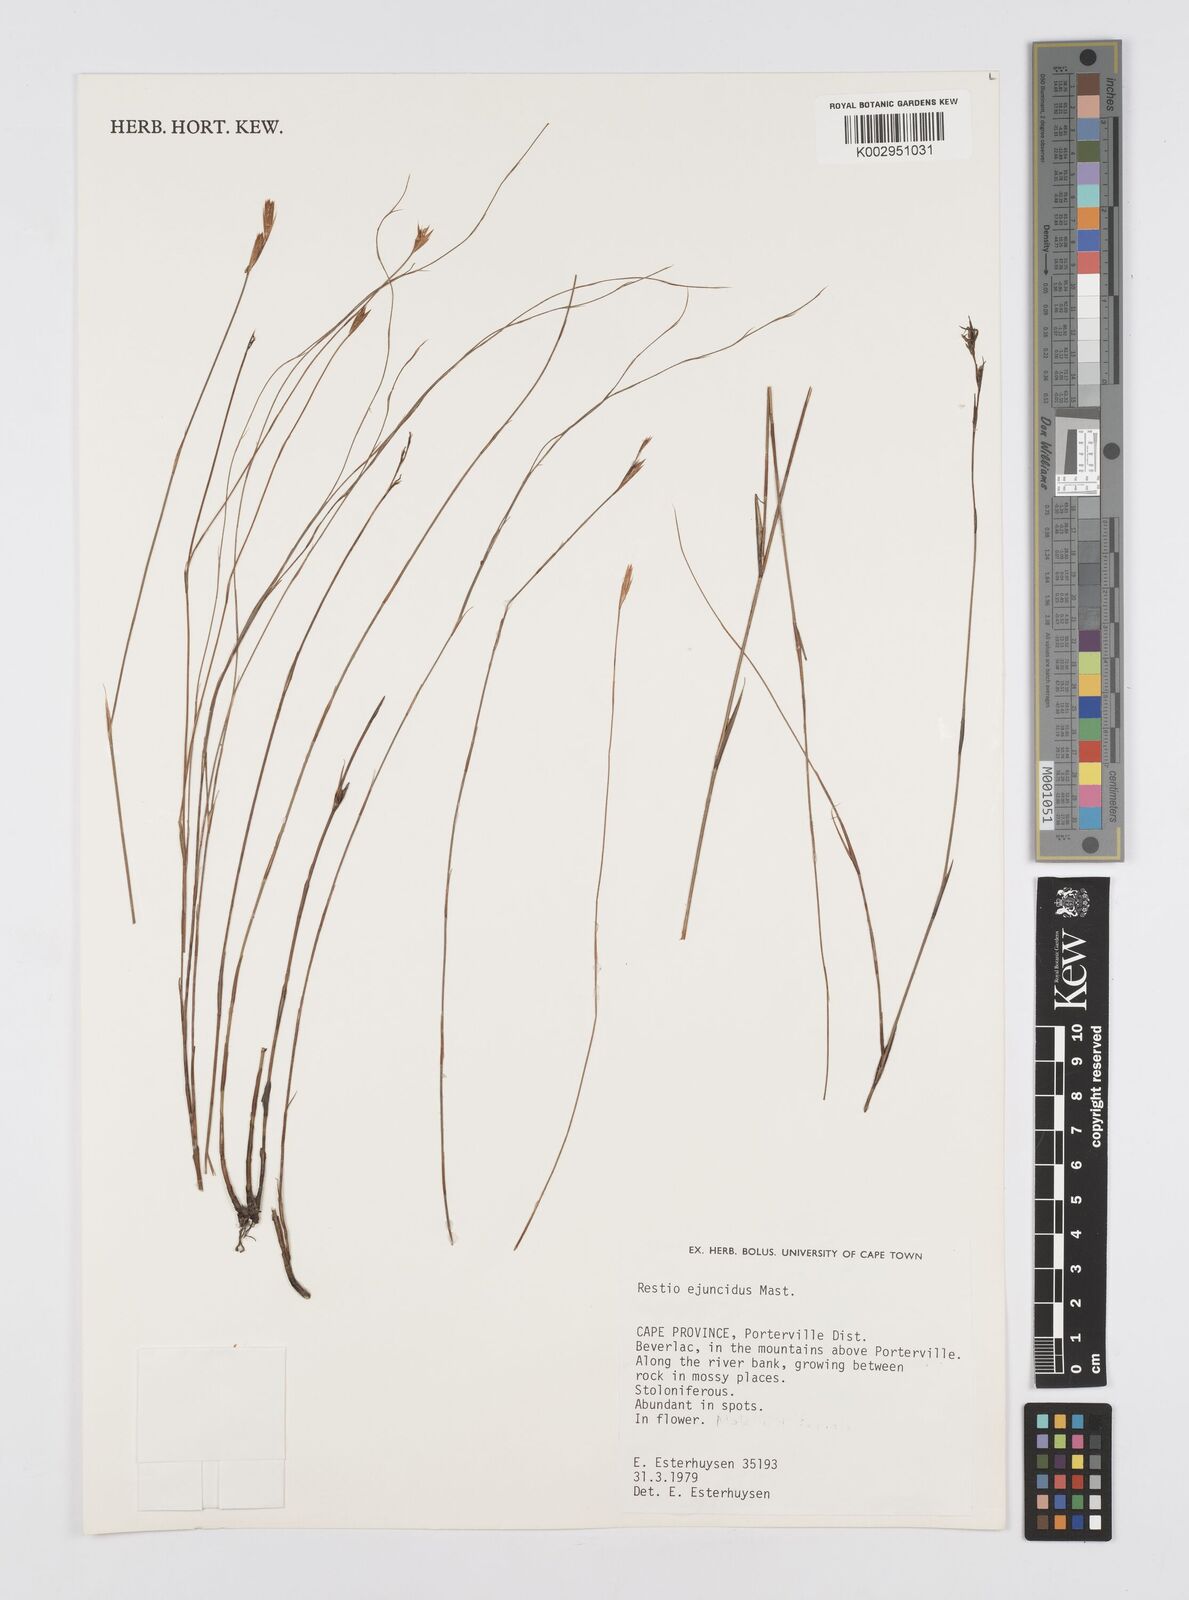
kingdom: Plantae
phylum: Tracheophyta
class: Liliopsida
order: Poales
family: Restionaceae
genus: Restio
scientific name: Restio ejuncidus
